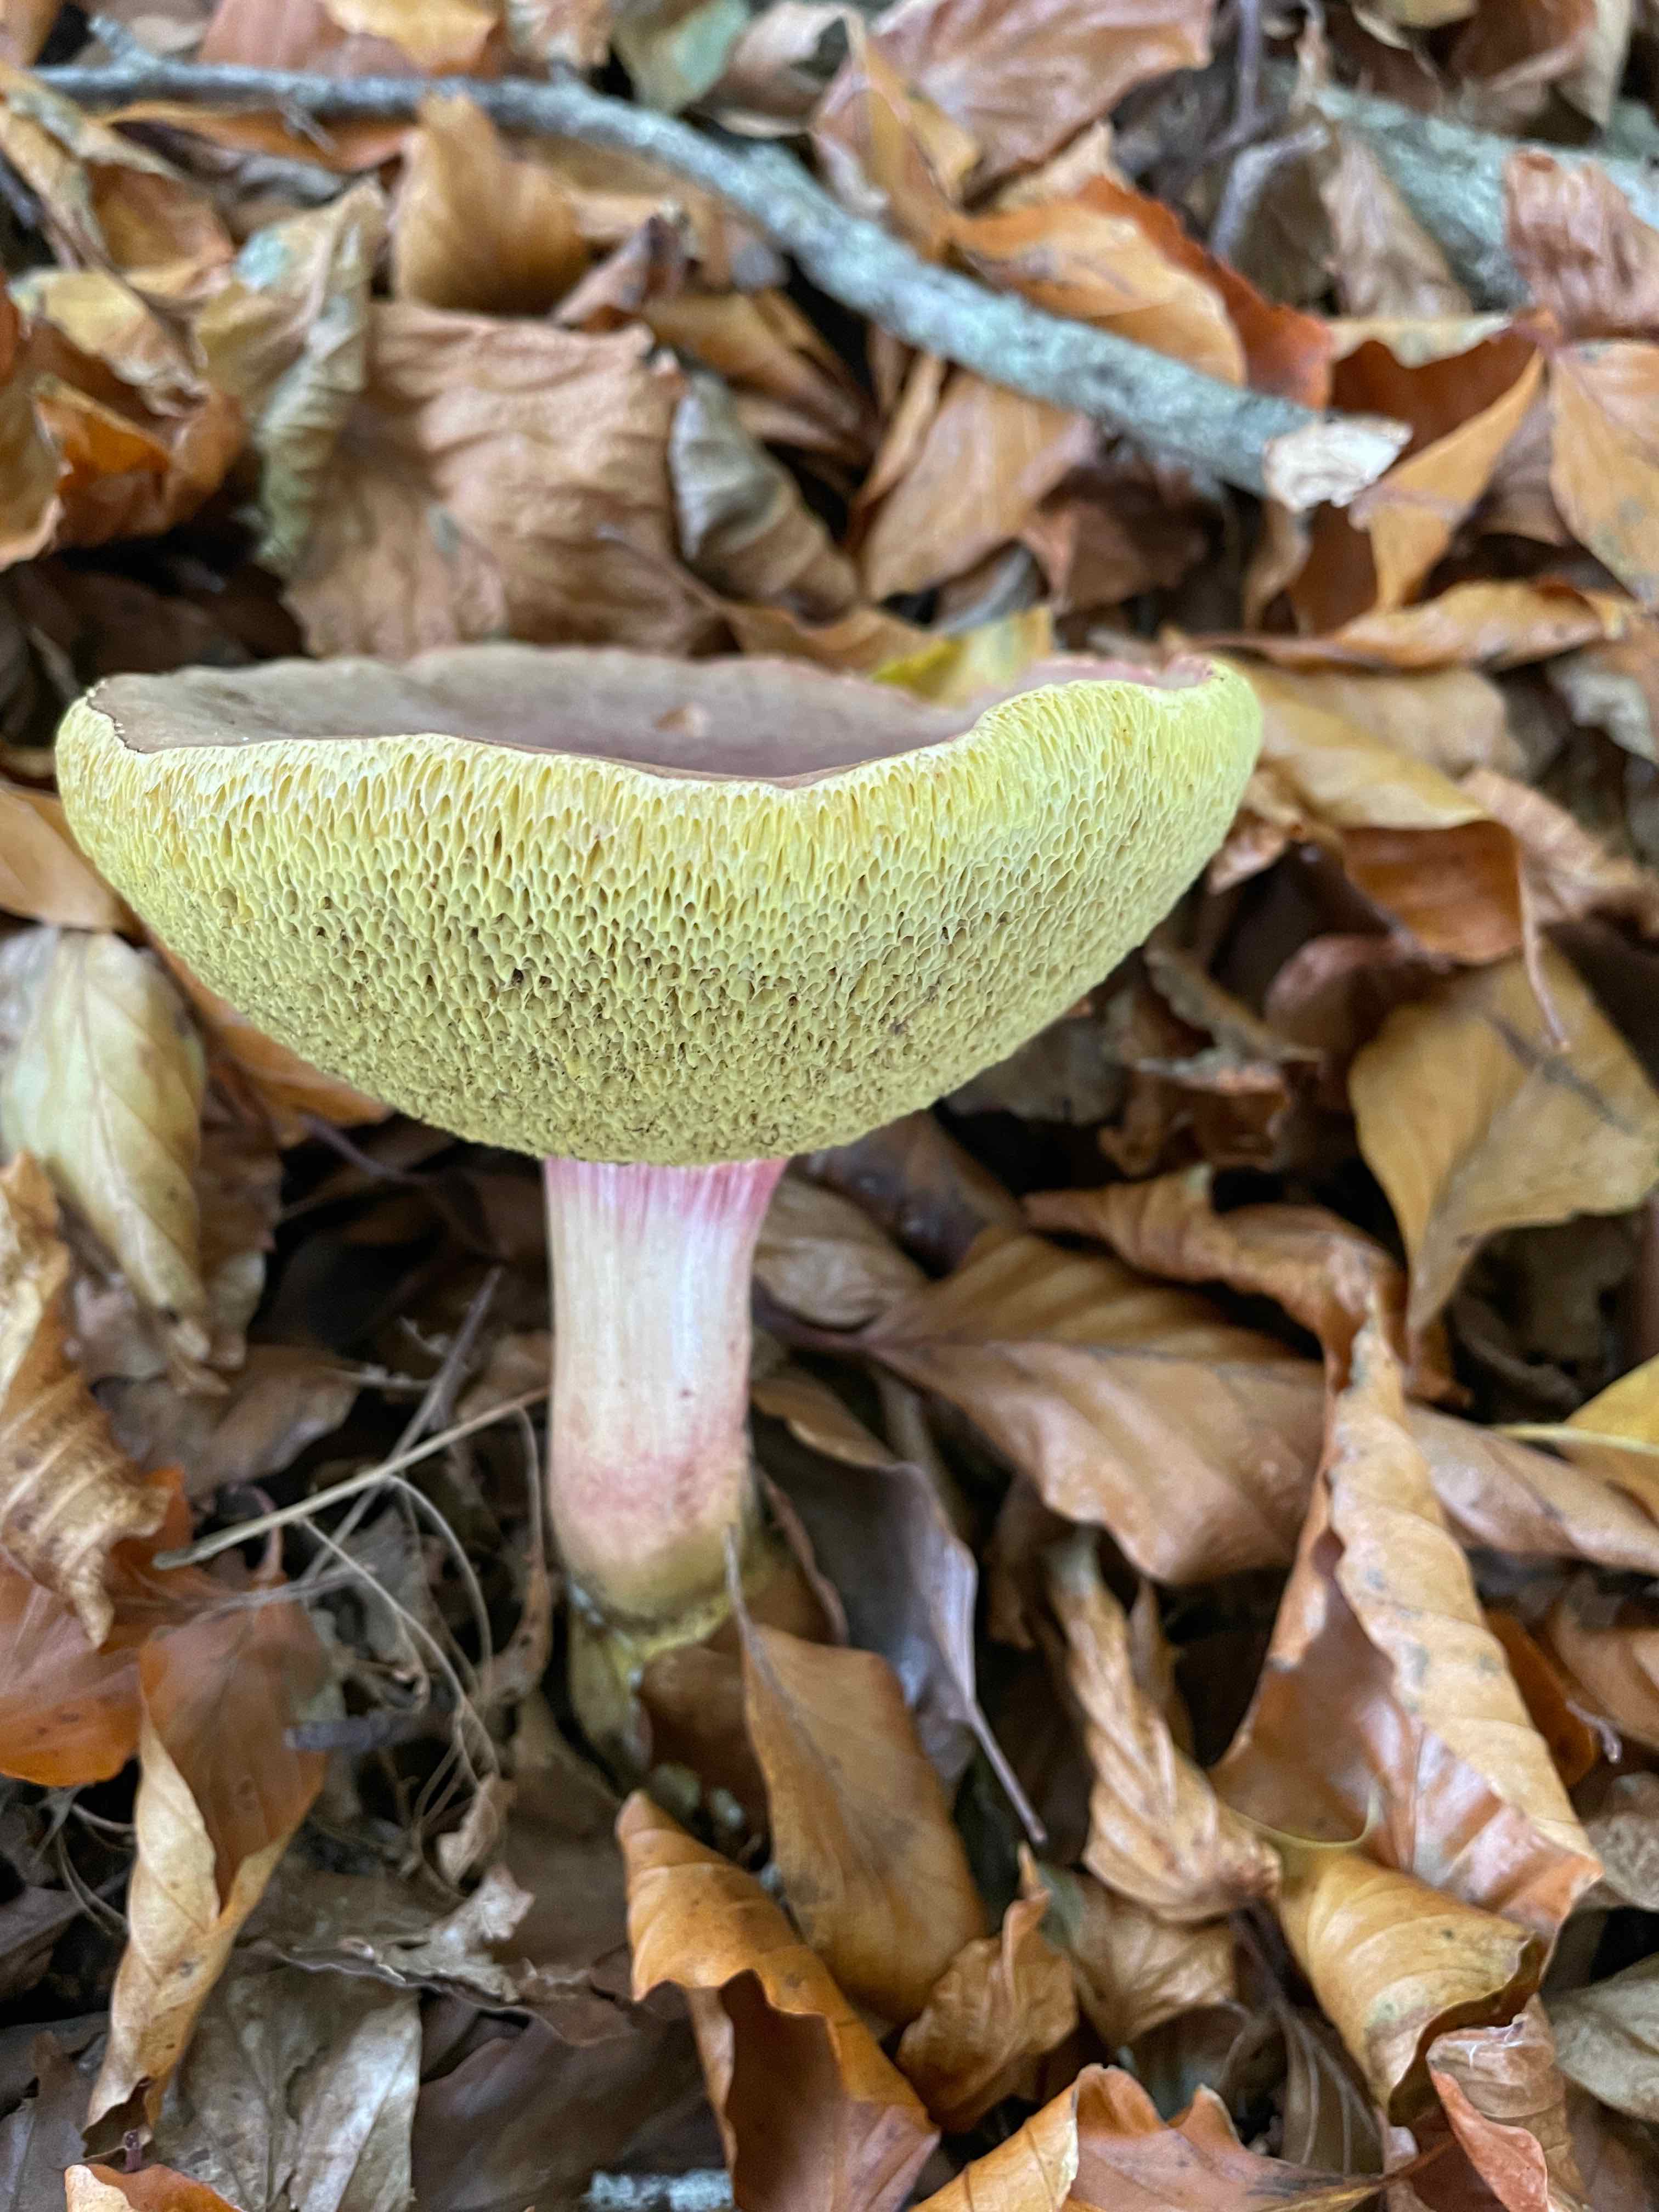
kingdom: Fungi
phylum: Basidiomycota
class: Agaricomycetes
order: Boletales
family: Boletaceae
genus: Xerocomellus
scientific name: Xerocomellus
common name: dværgrørhat
